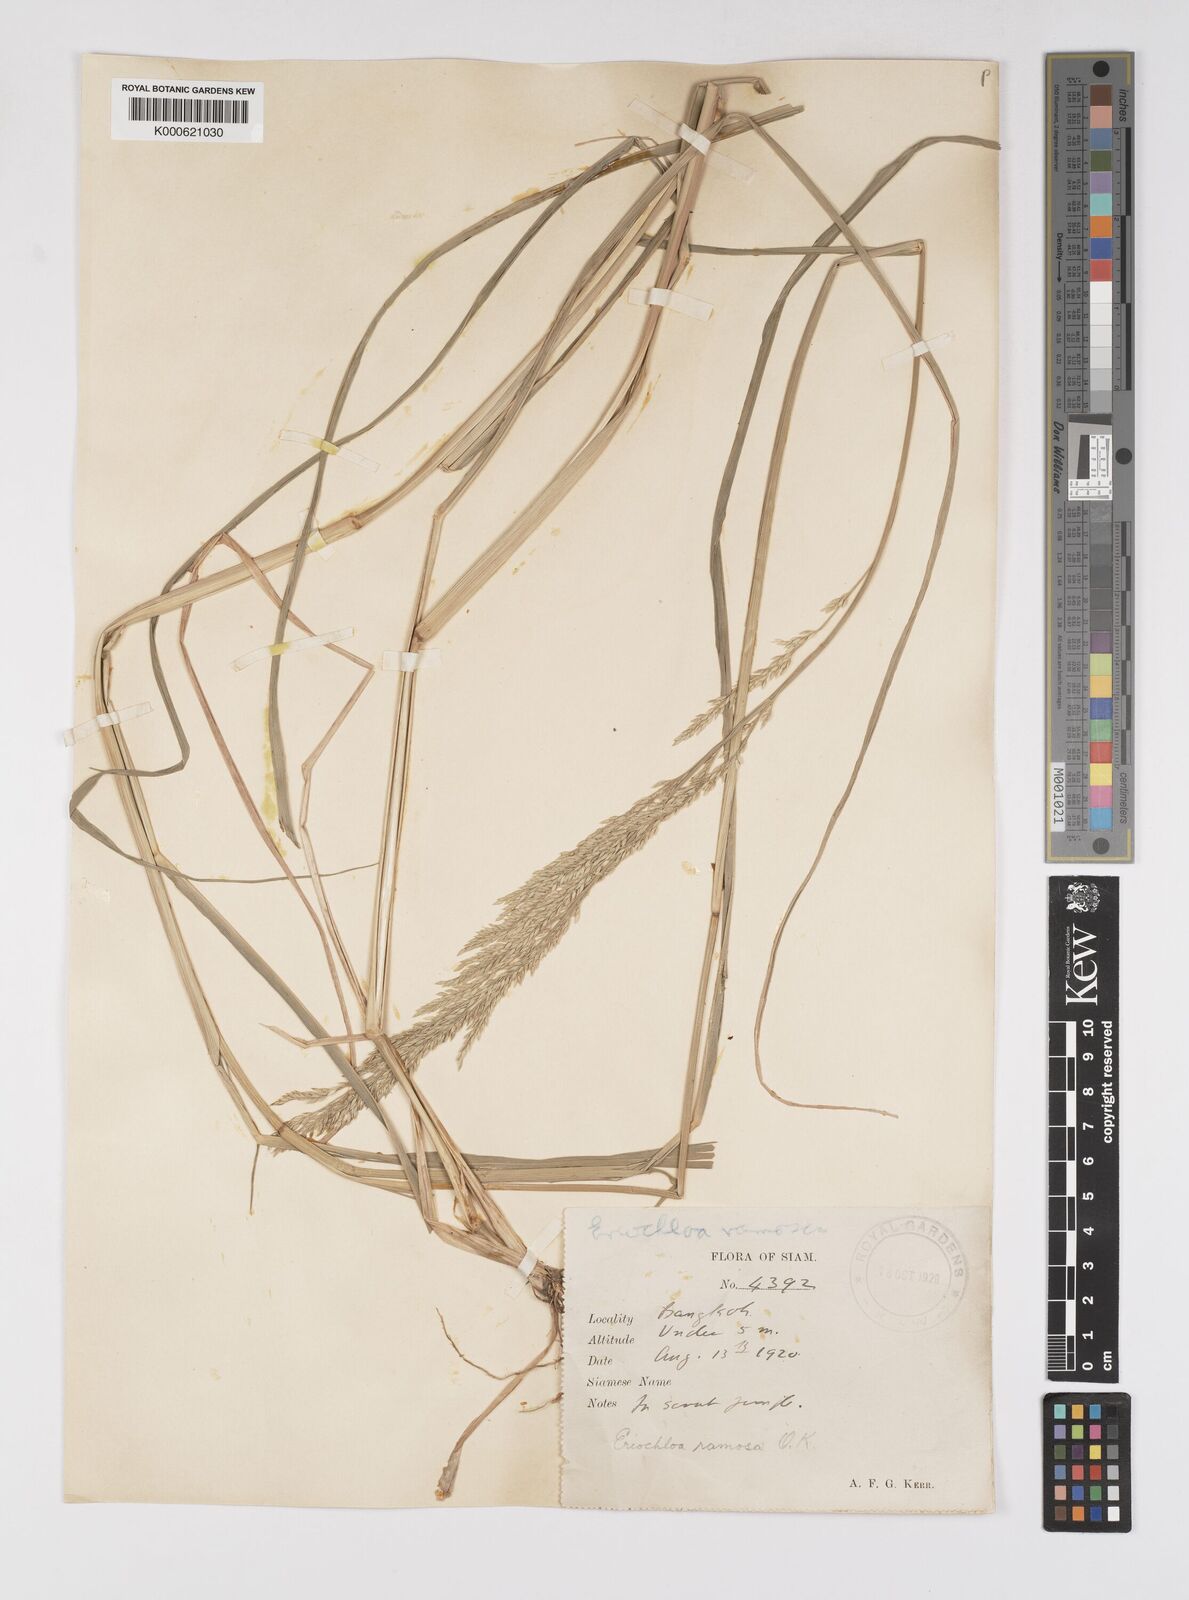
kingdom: Plantae
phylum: Tracheophyta
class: Liliopsida
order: Poales
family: Poaceae
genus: Eriochloa
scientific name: Eriochloa procera
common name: Spring grass
